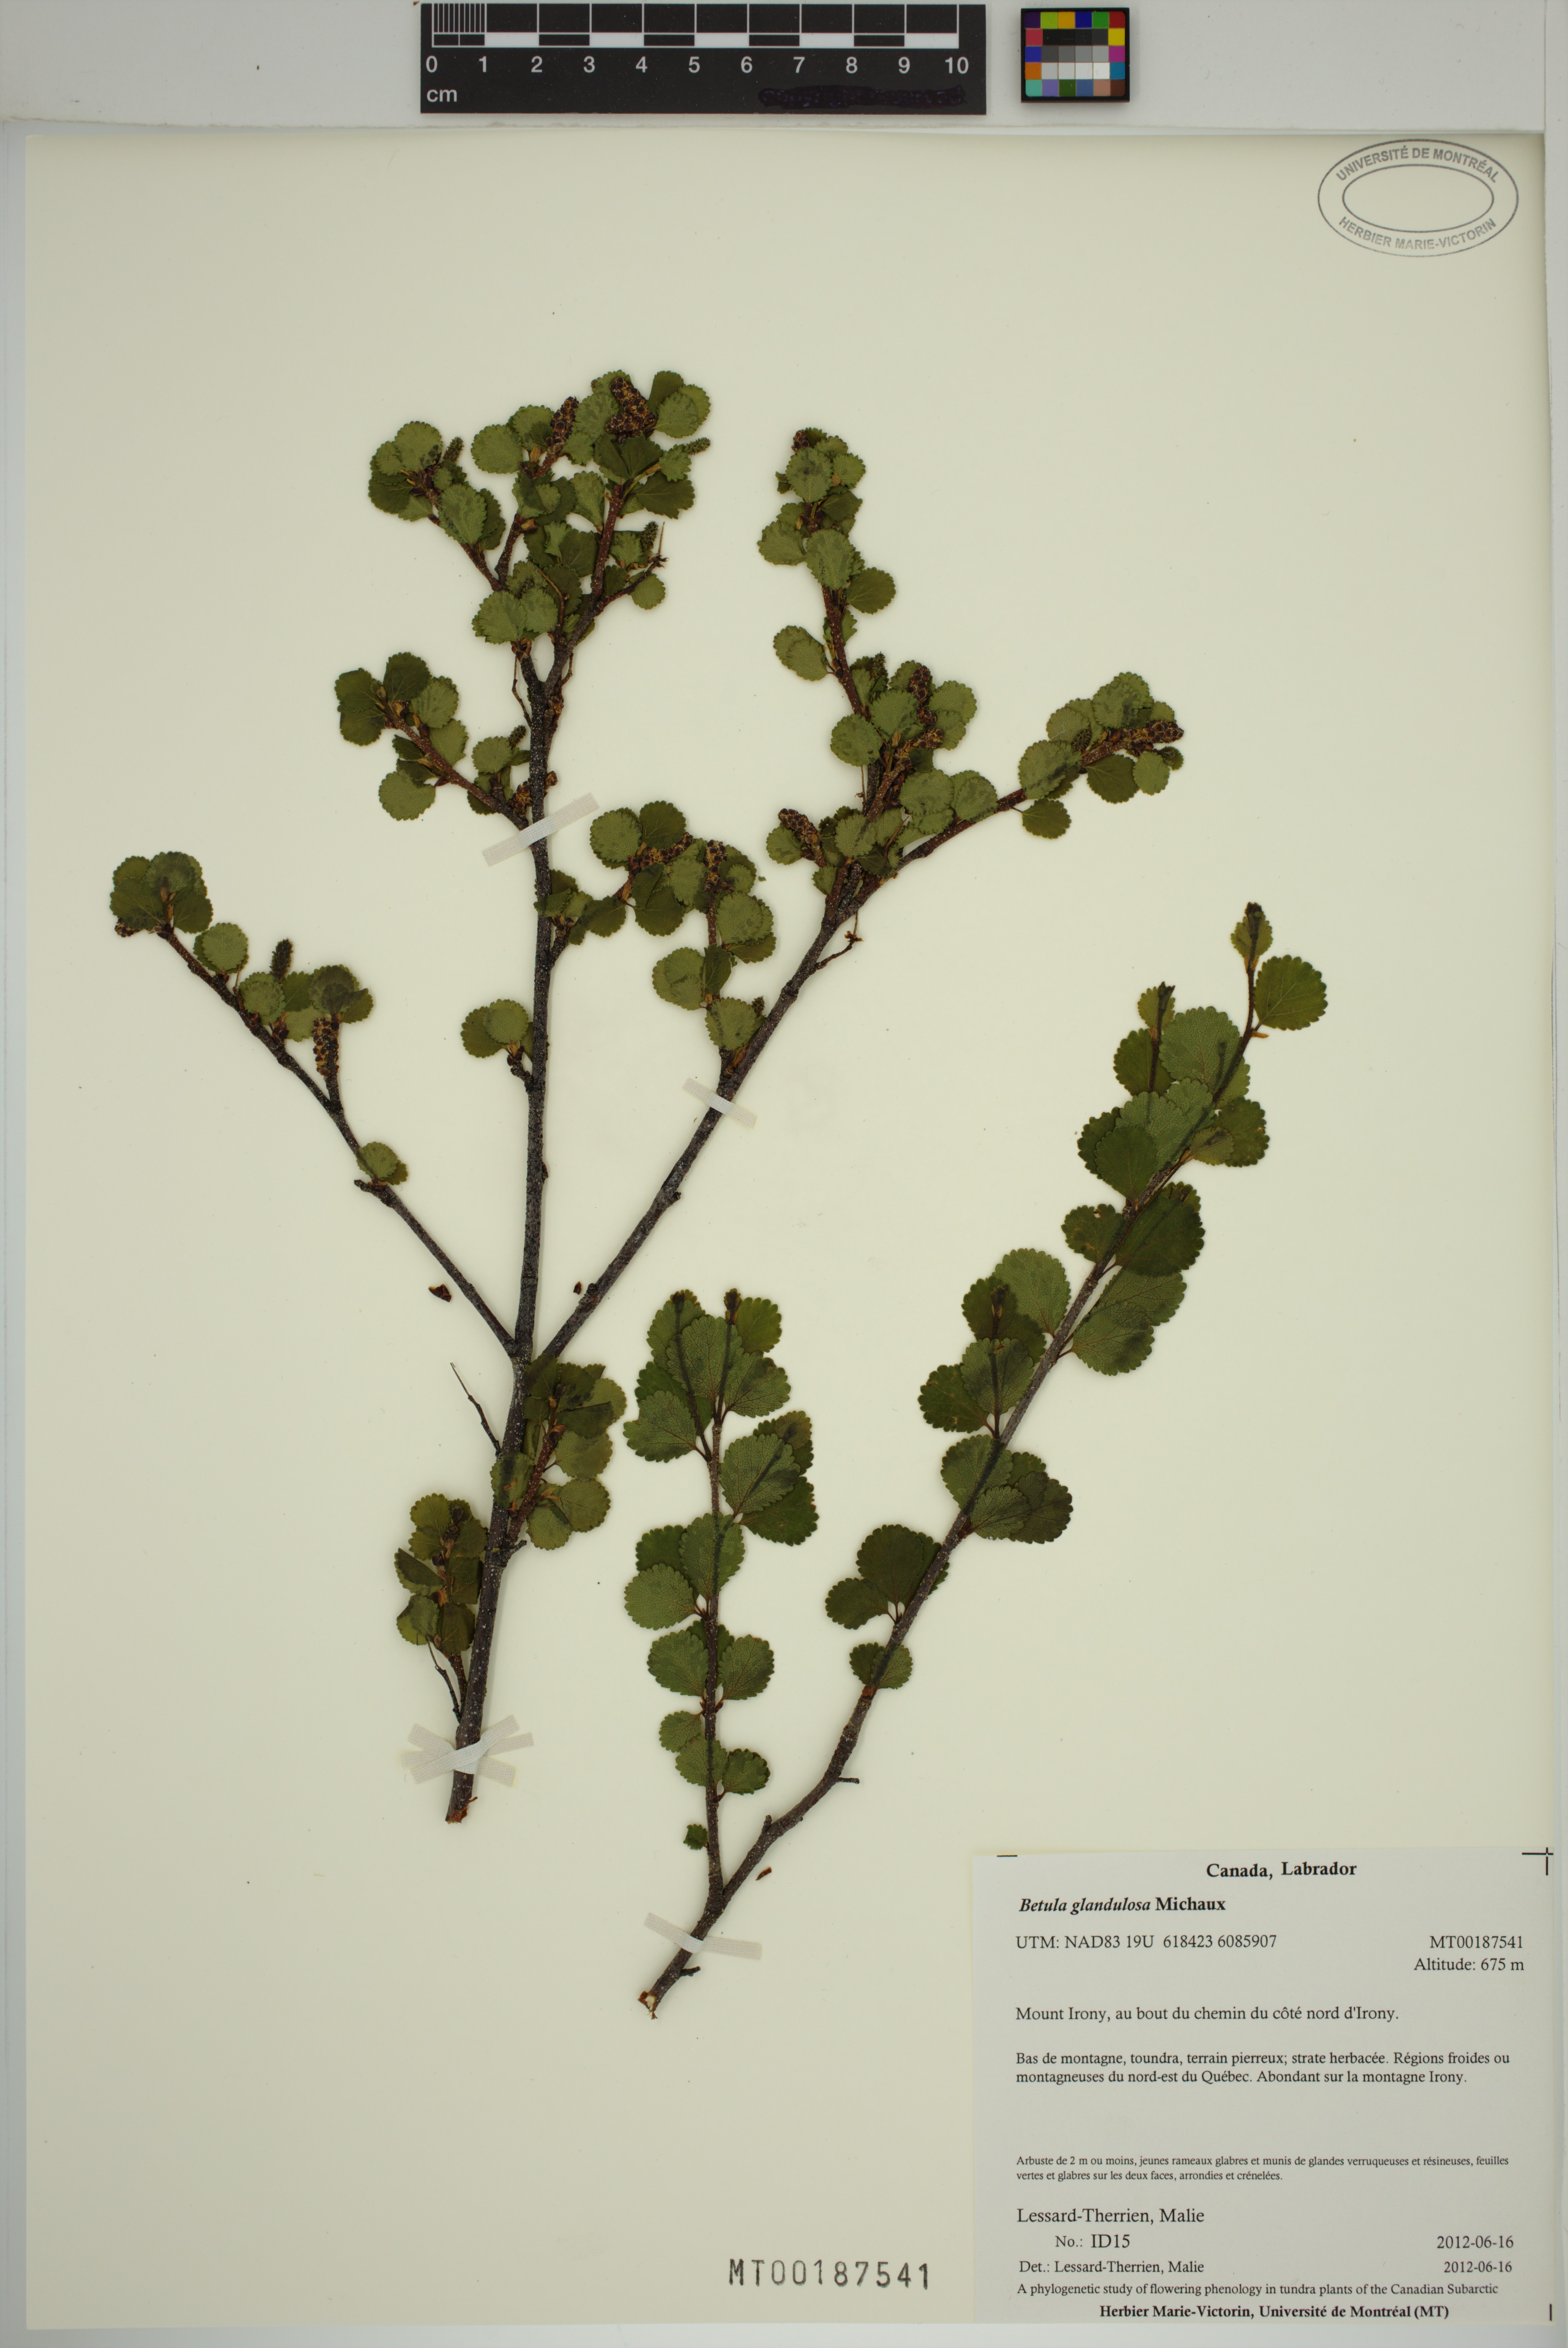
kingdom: Plantae
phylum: Tracheophyta
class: Magnoliopsida
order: Fagales
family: Betulaceae
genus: Betula
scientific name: Betula glandulosa
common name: Dwarf birch
